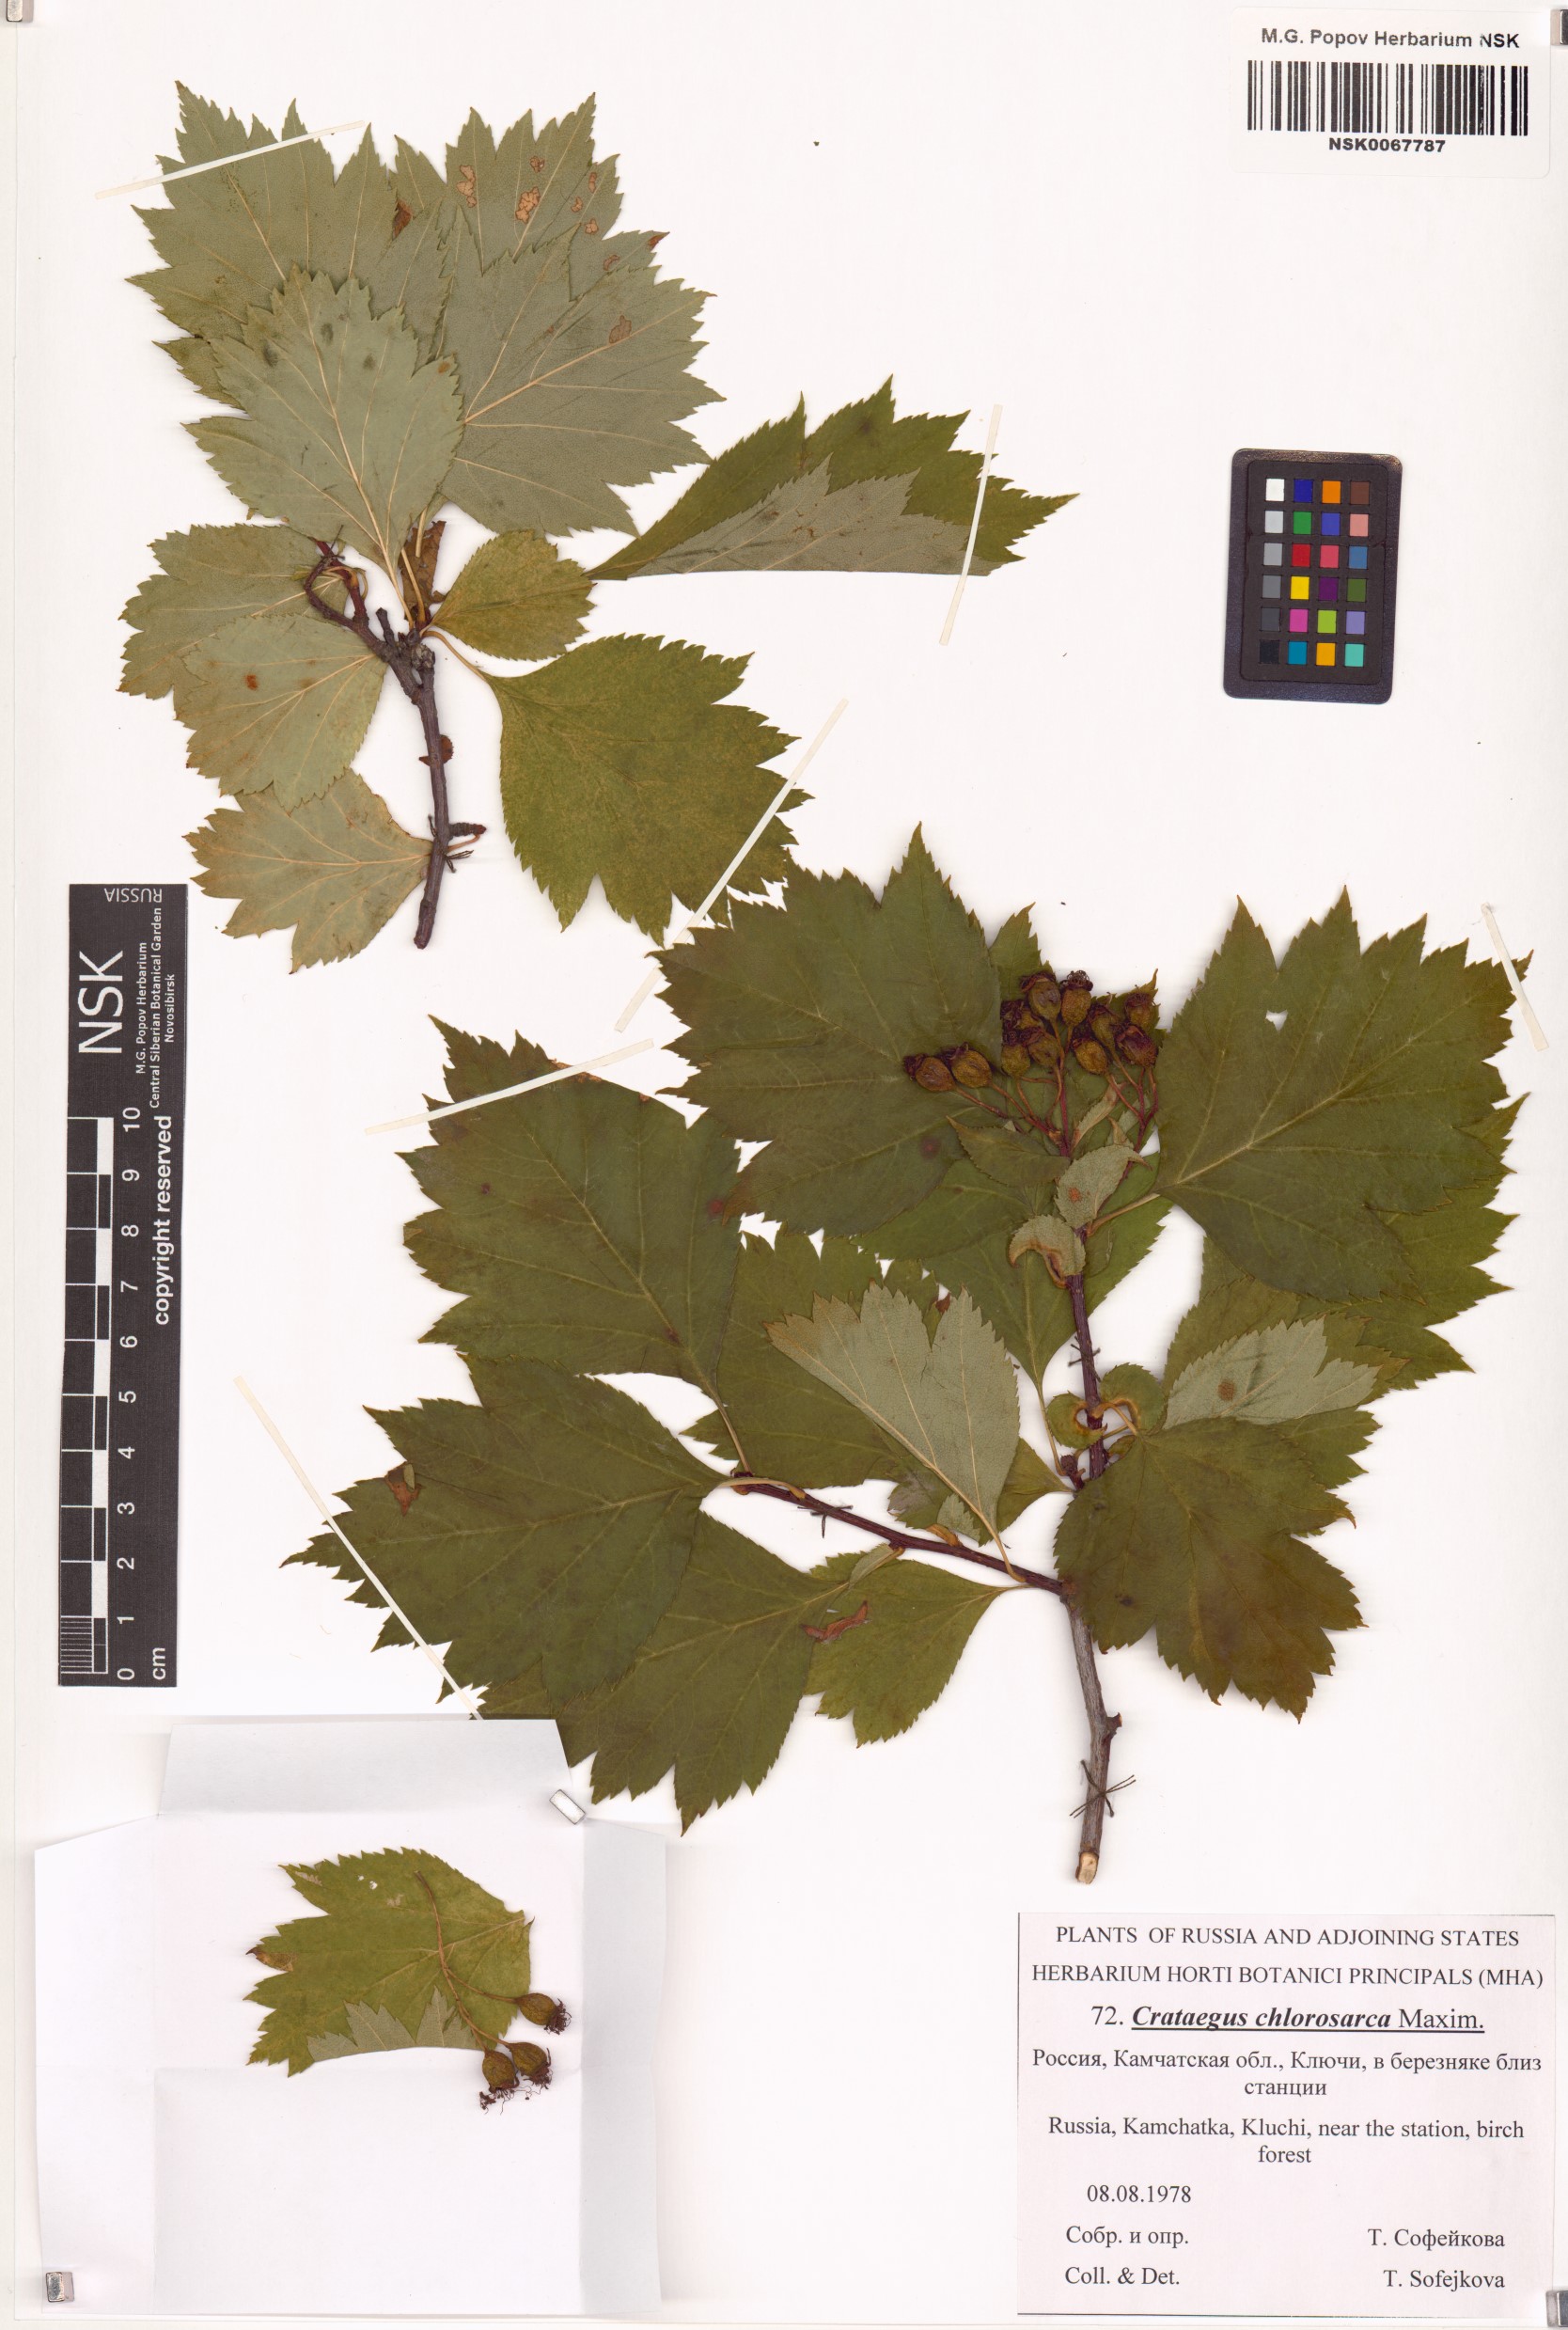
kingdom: Plantae
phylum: Tracheophyta
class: Magnoliopsida
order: Rosales
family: Rosaceae
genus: Crataegus
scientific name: Crataegus chlorosarca
